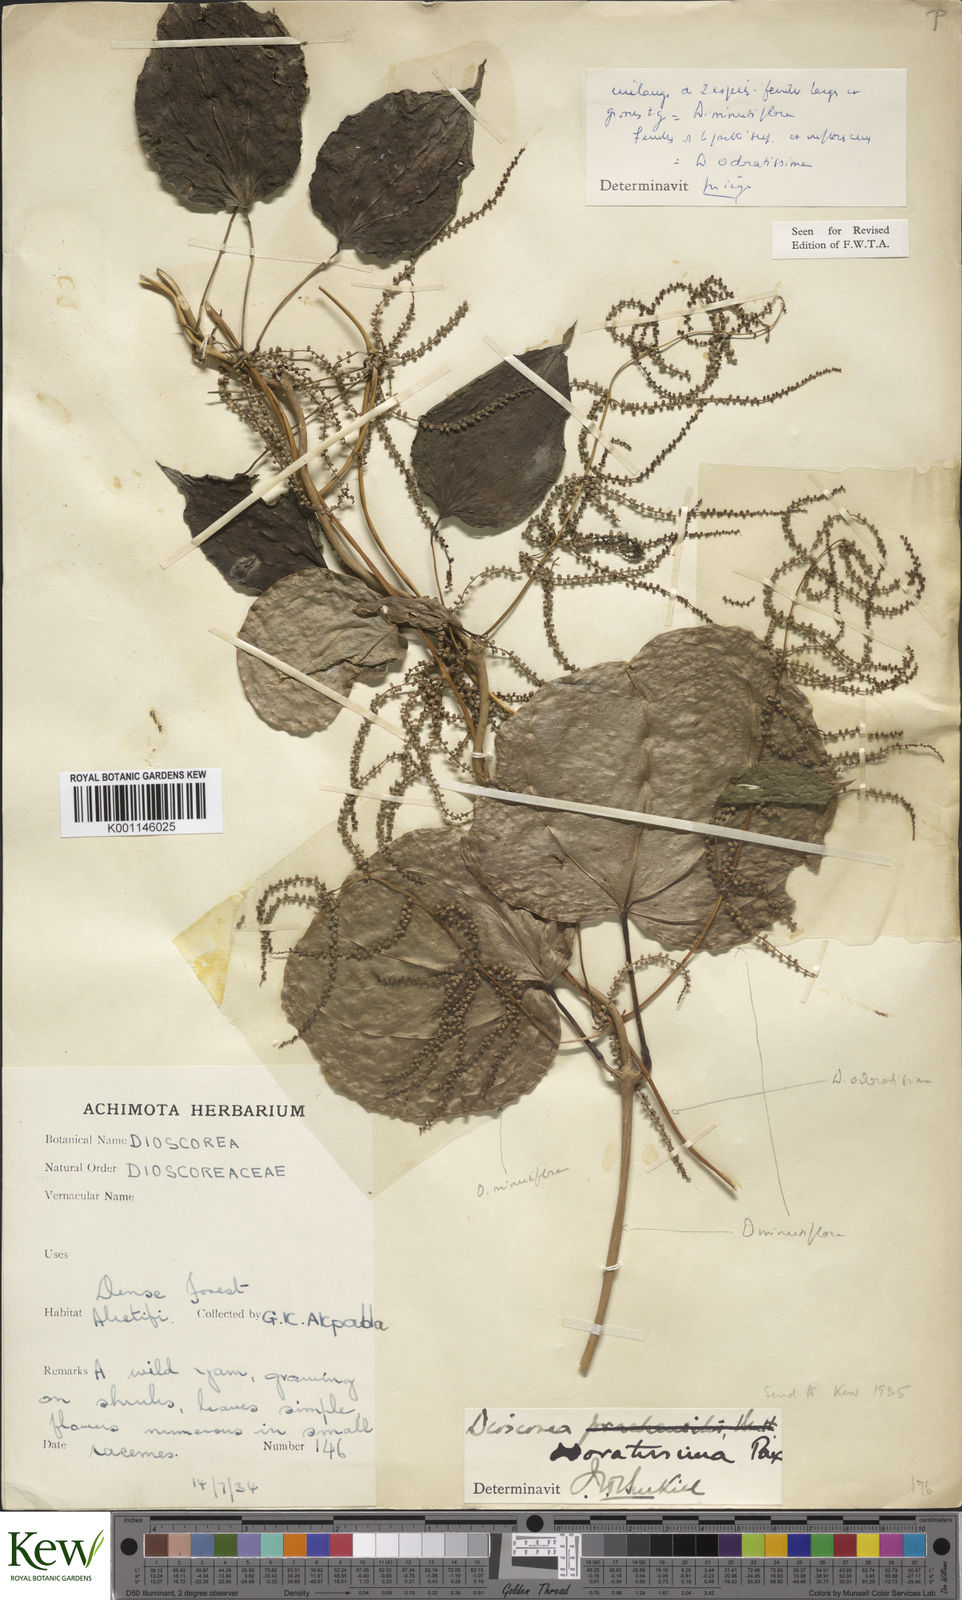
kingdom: Plantae
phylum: Tracheophyta
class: Liliopsida
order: Dioscoreales
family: Dioscoreaceae
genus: Dioscorea
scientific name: Dioscorea minutiflora
